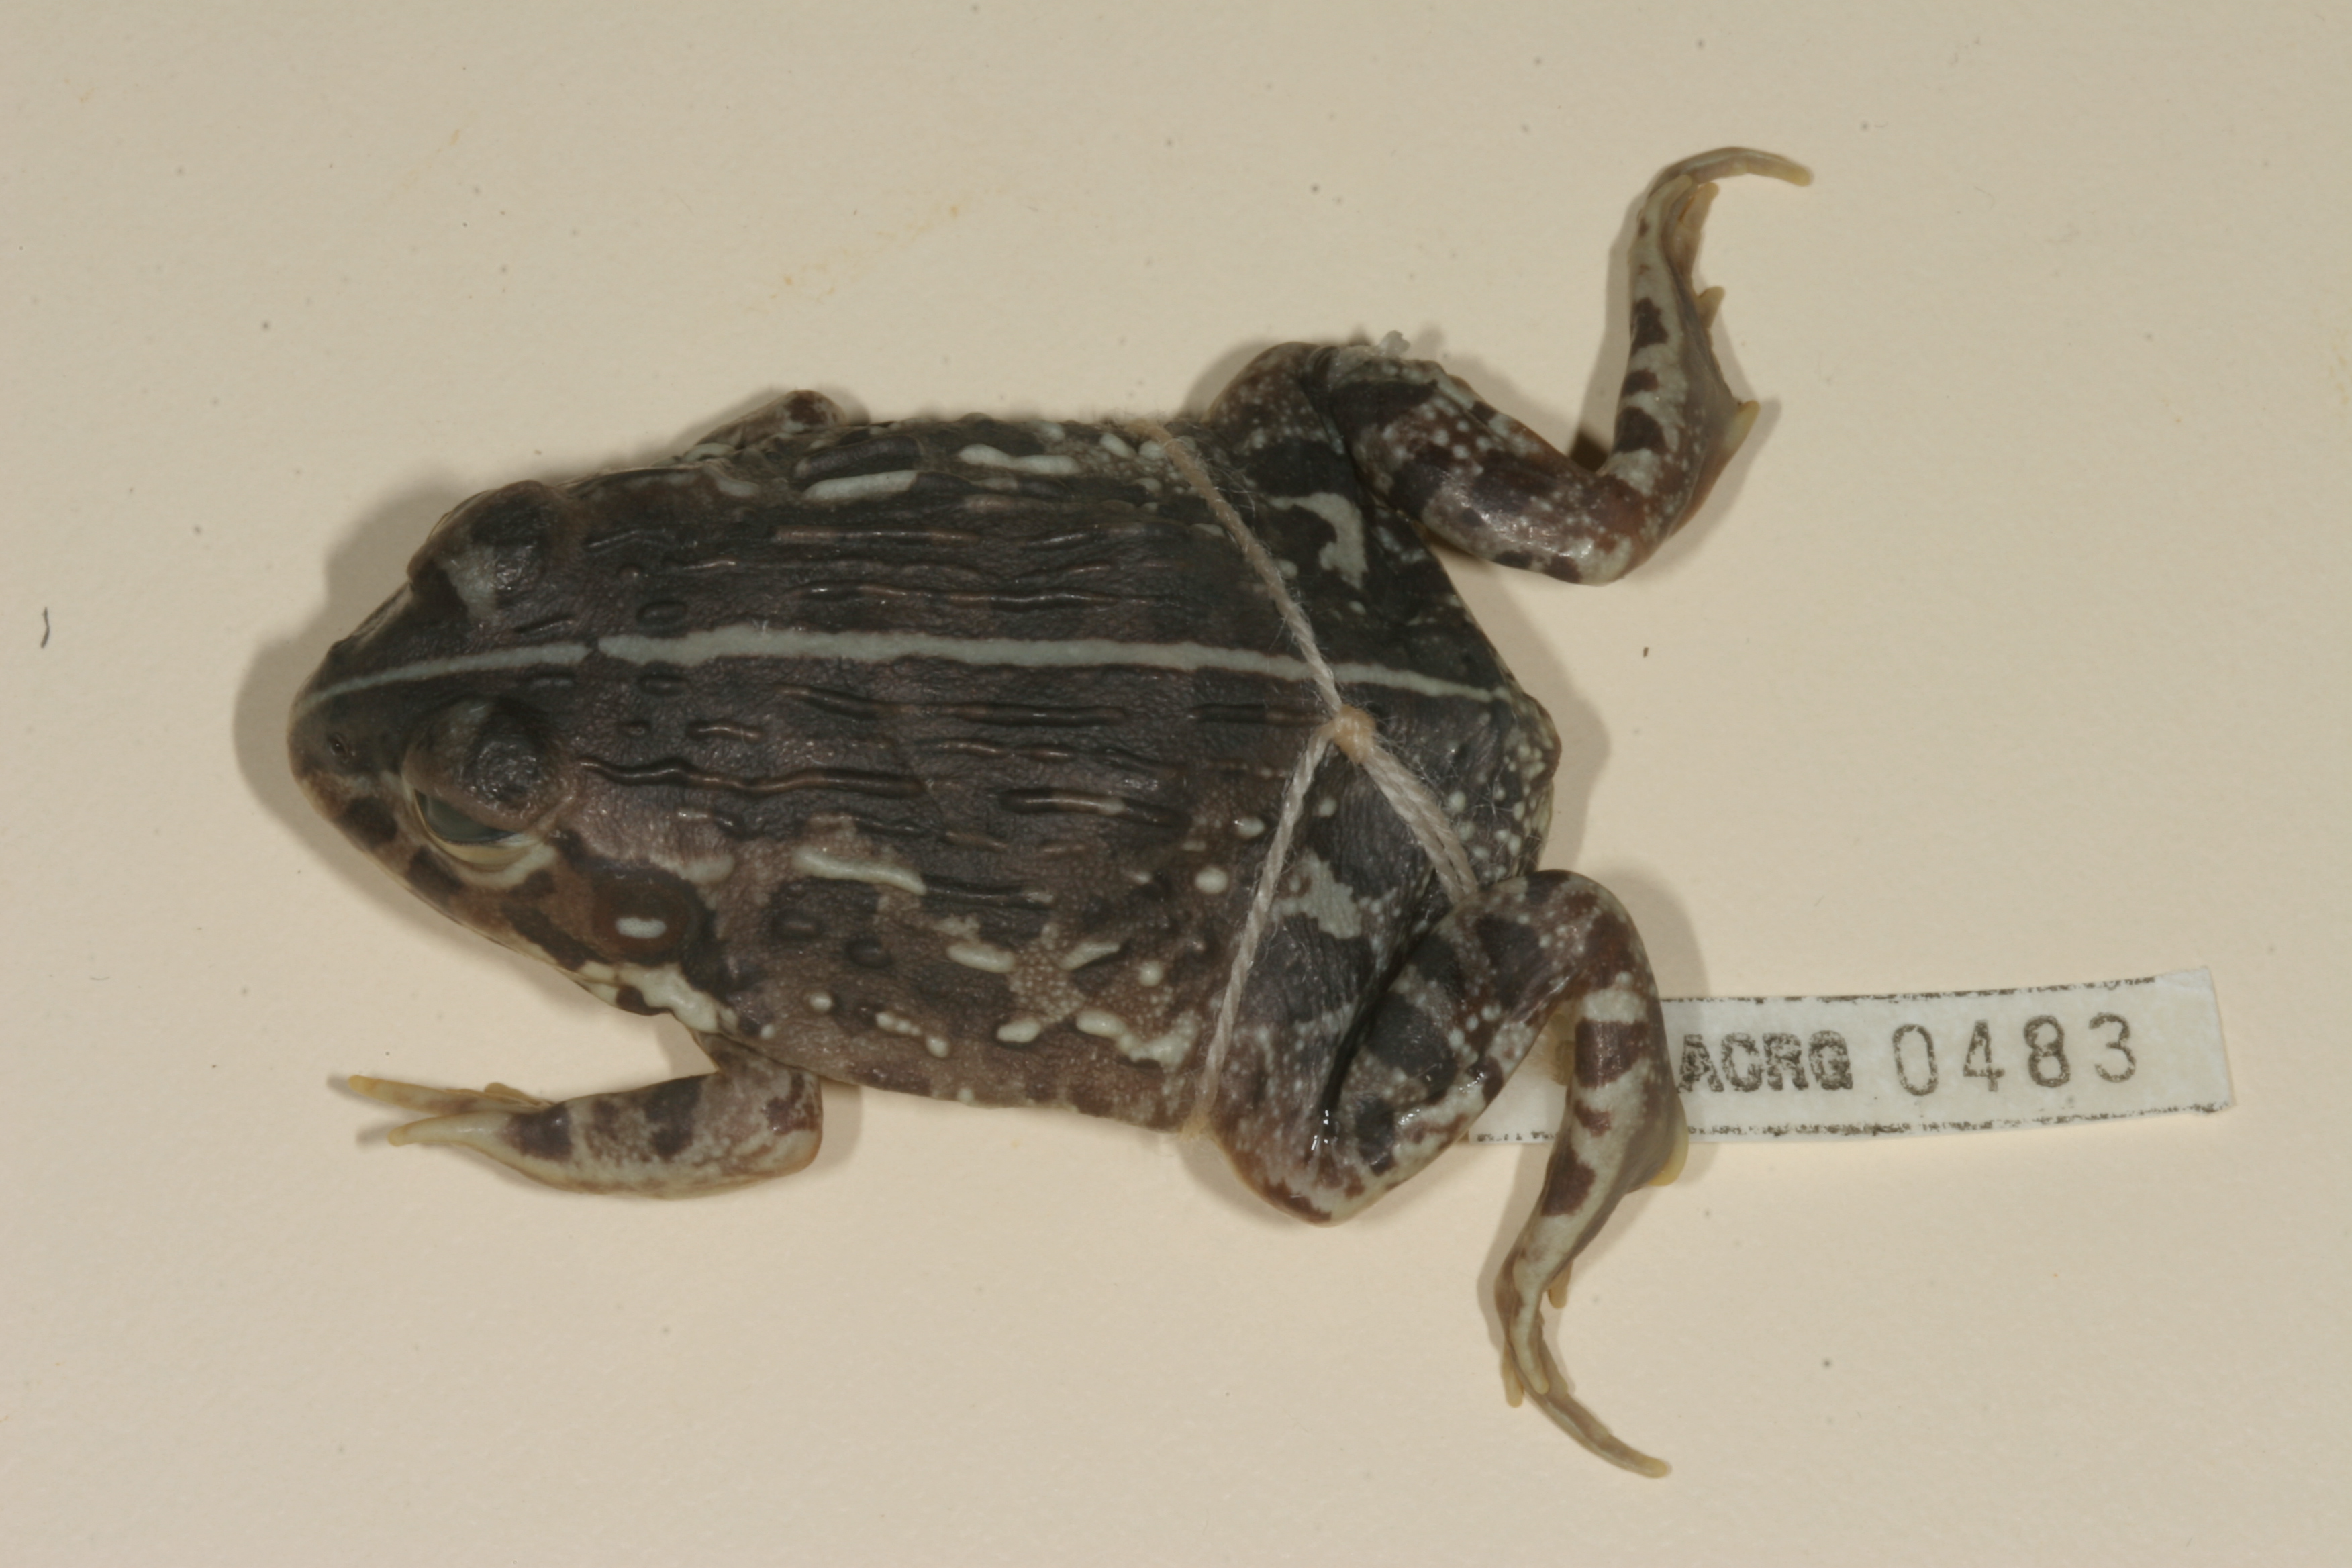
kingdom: Animalia
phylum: Chordata
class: Amphibia
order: Anura
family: Pyxicephalidae
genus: Pyxicephalus
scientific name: Pyxicephalus edulis
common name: Peter's bullfrog
